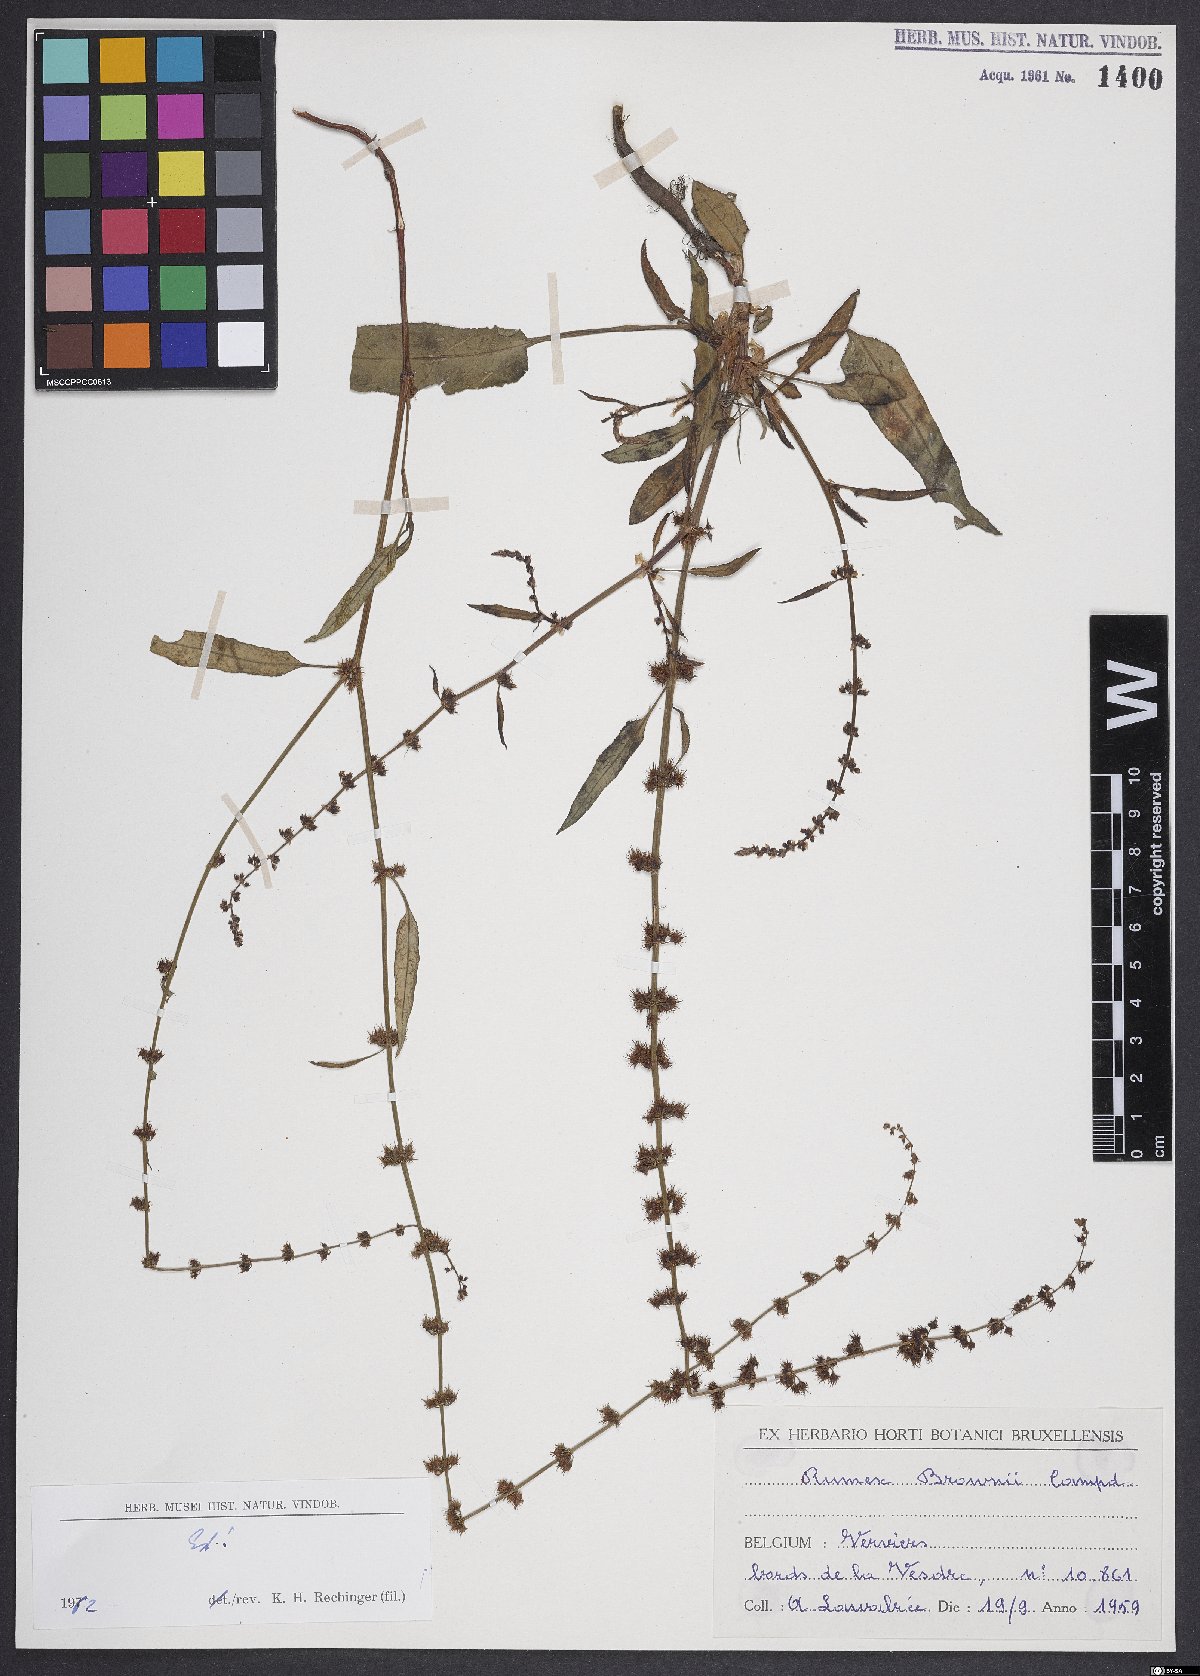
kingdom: Plantae
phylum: Tracheophyta
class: Magnoliopsida
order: Caryophyllales
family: Polygonaceae
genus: Rumex
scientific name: Rumex brownii
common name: Hooked dock
